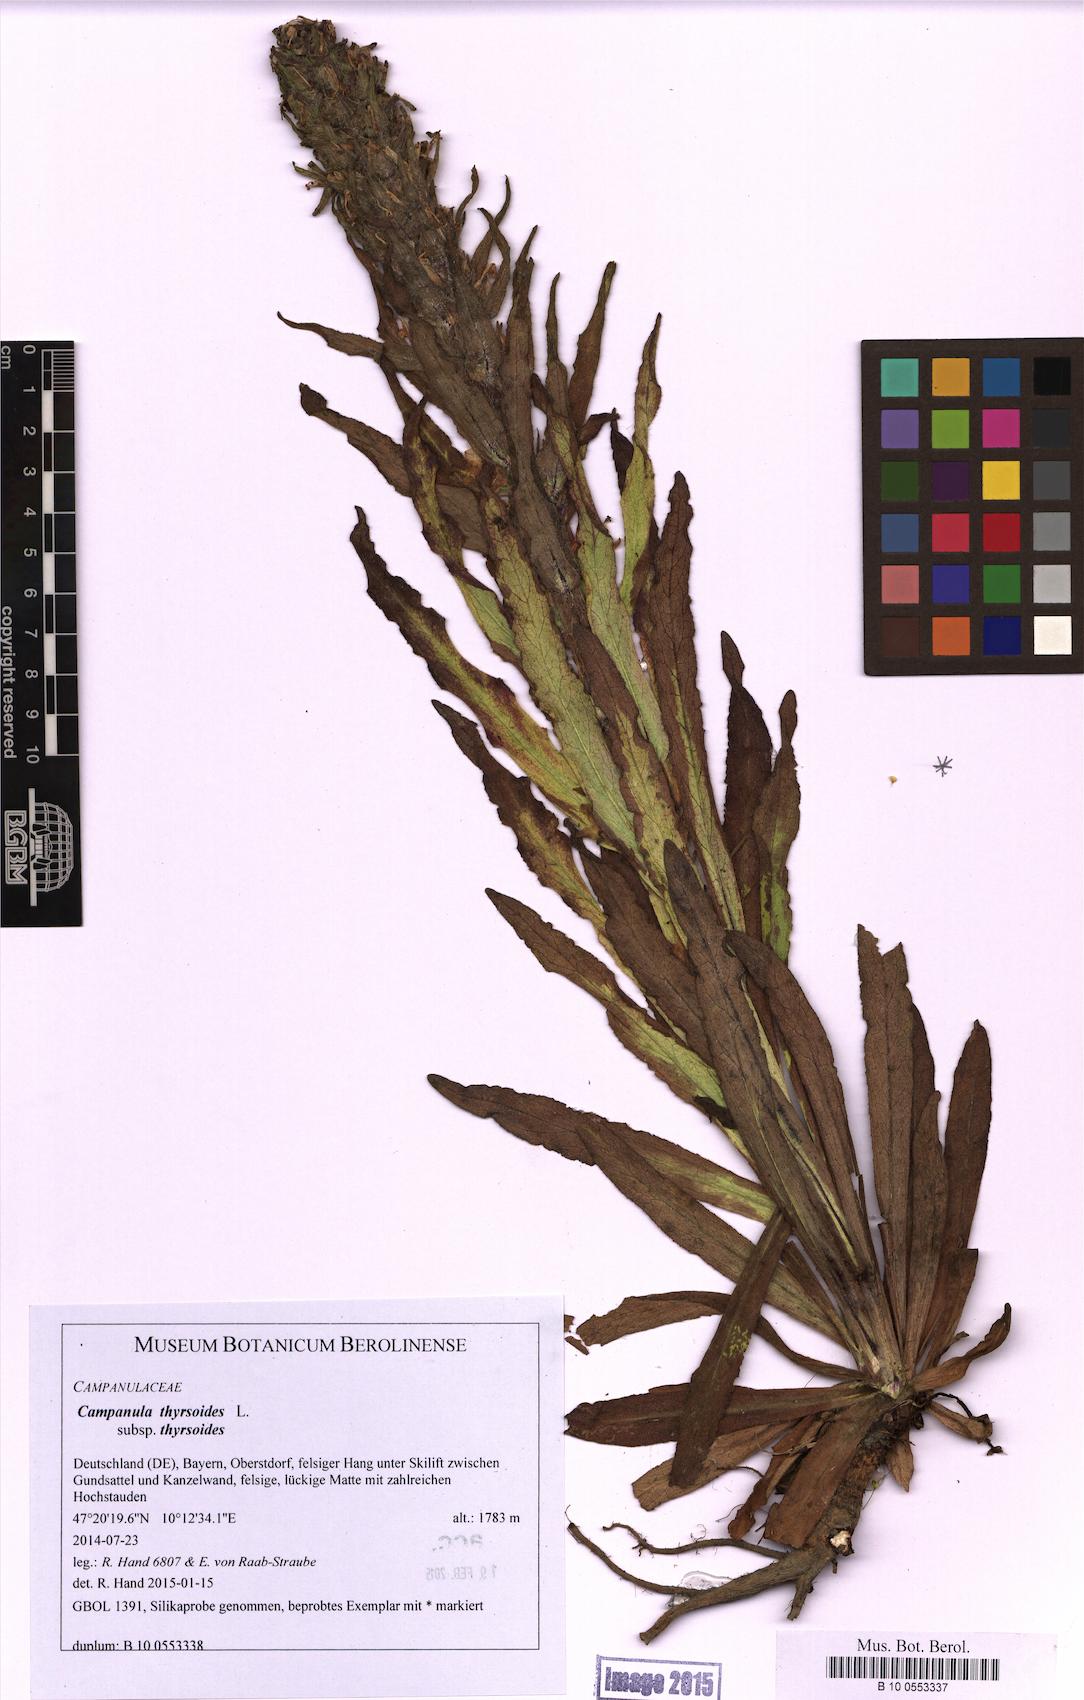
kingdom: Plantae
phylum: Tracheophyta
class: Magnoliopsida
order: Asterales
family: Campanulaceae
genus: Campanula
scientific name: Campanula thyrsoides
